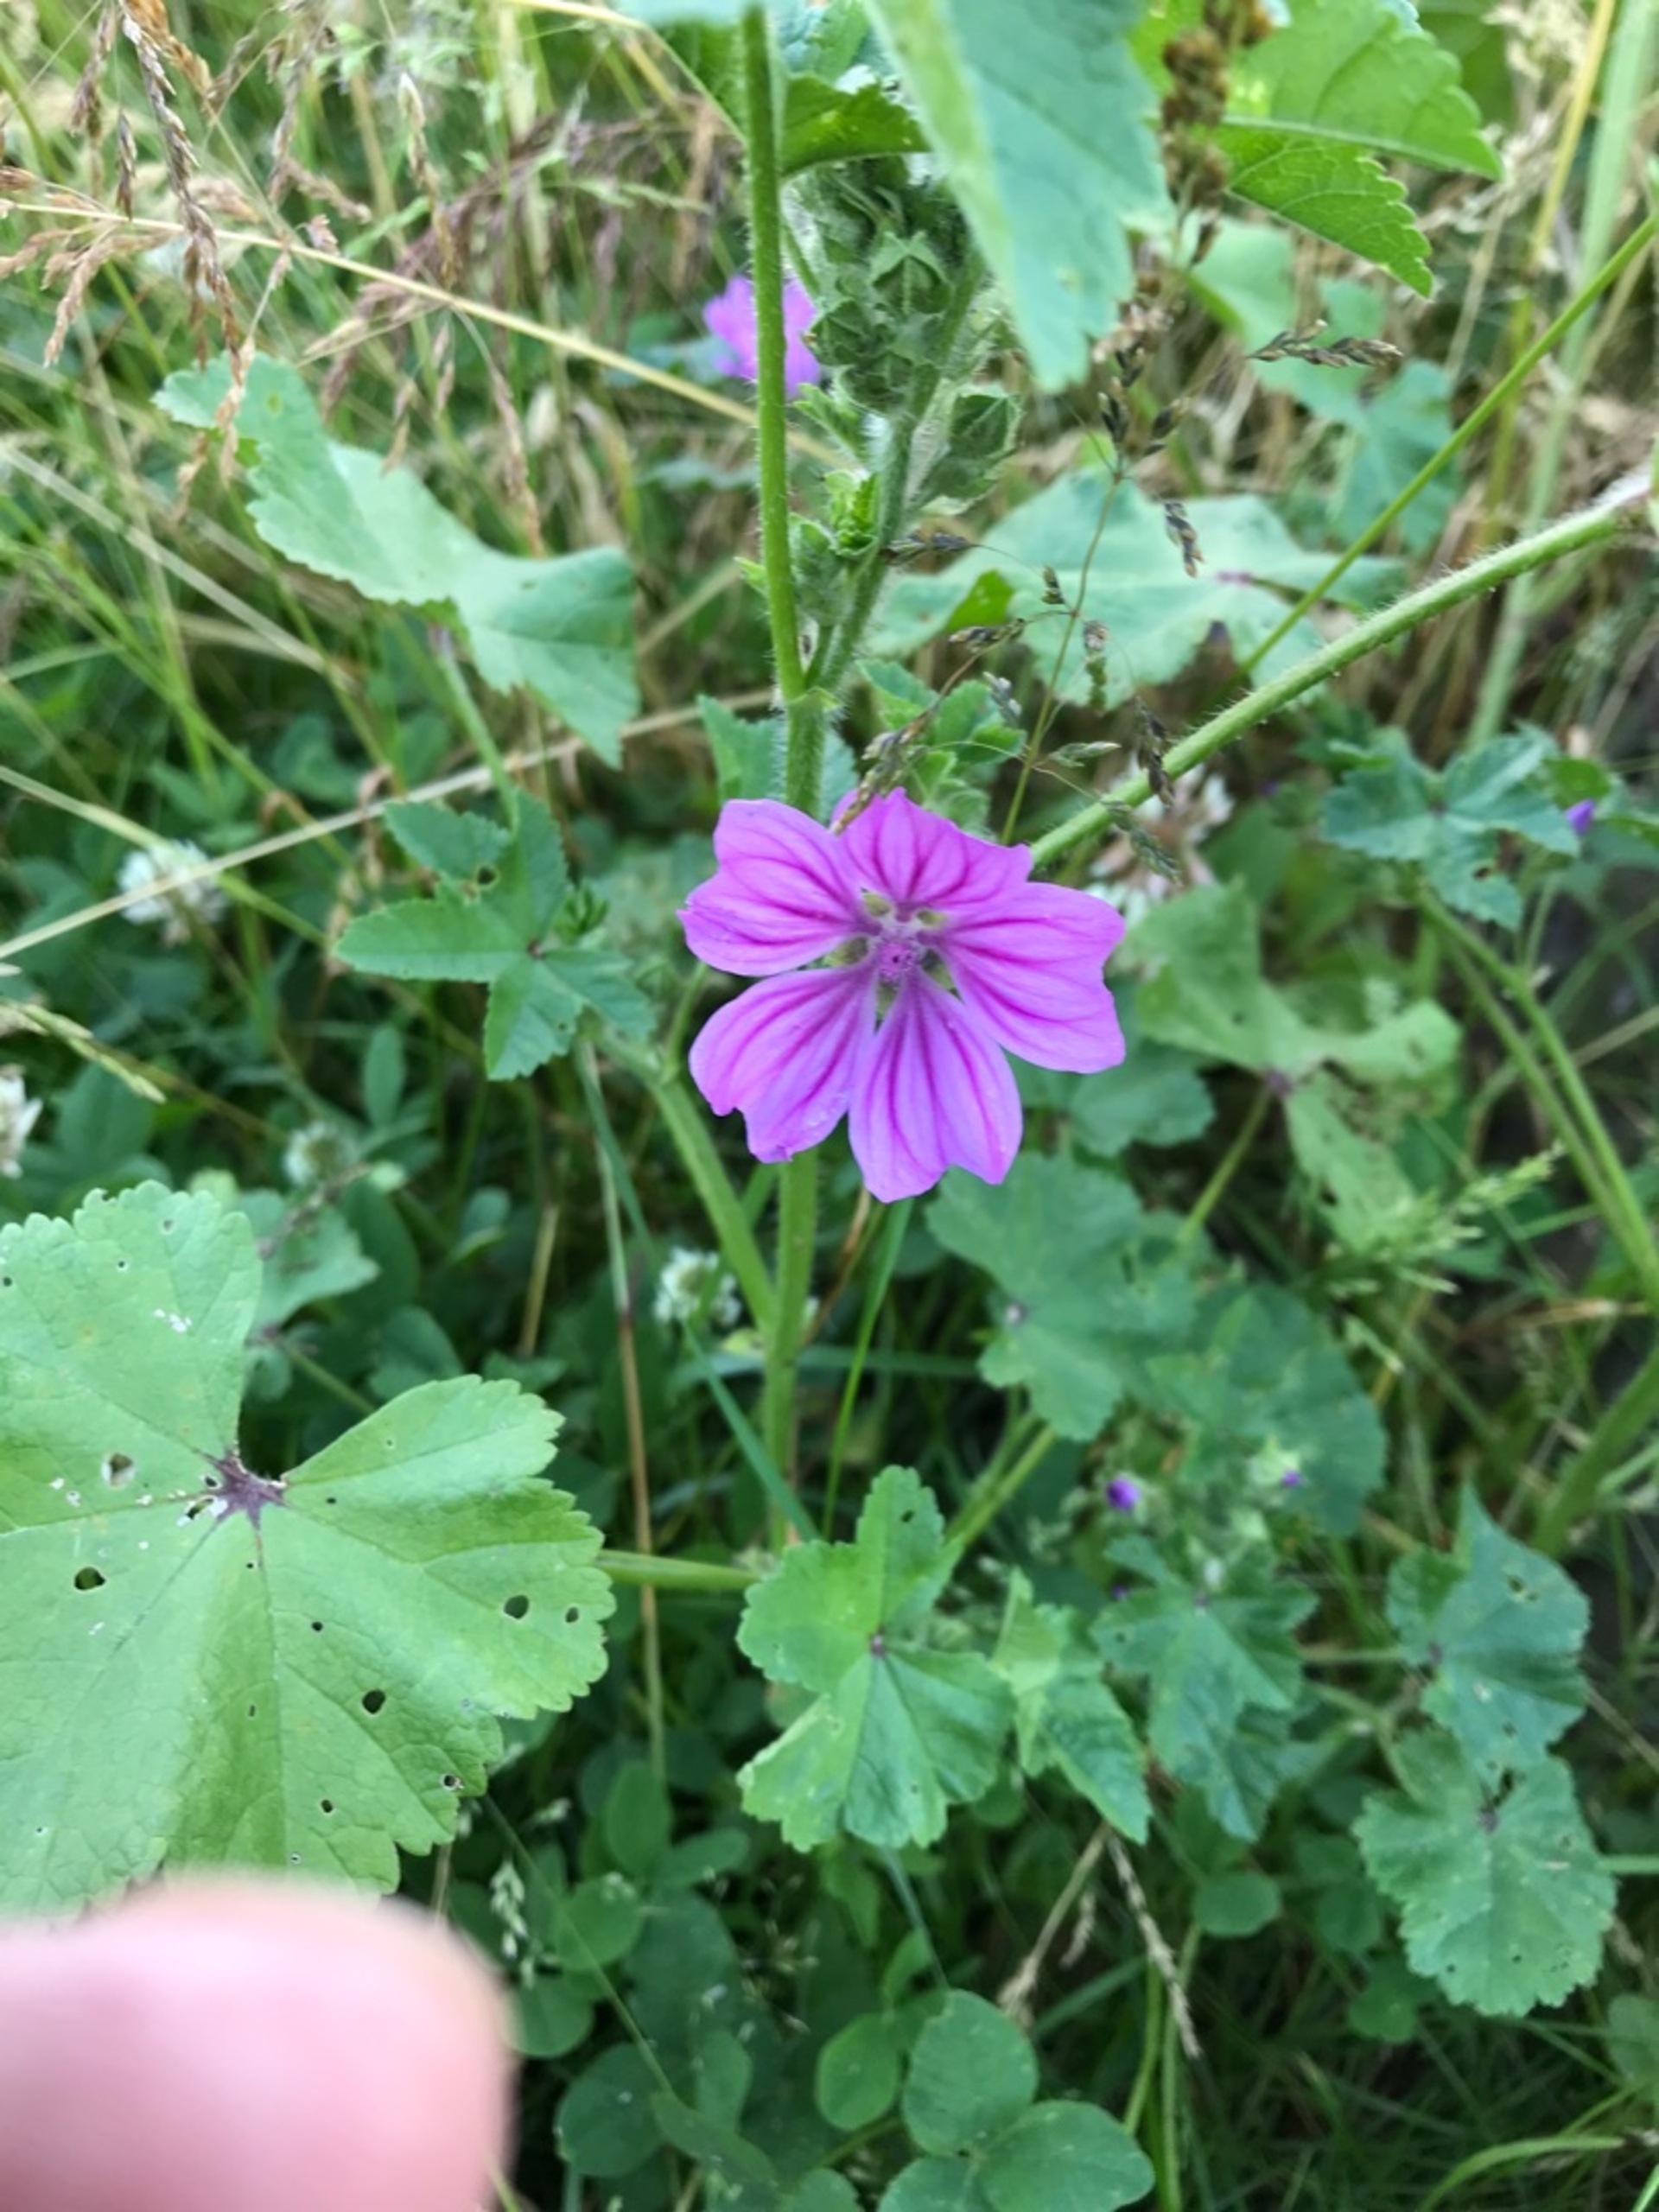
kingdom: Plantae
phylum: Tracheophyta
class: Magnoliopsida
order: Malvales
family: Malvaceae
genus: Malva
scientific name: Malva sylvestris
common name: Almindelig katost
